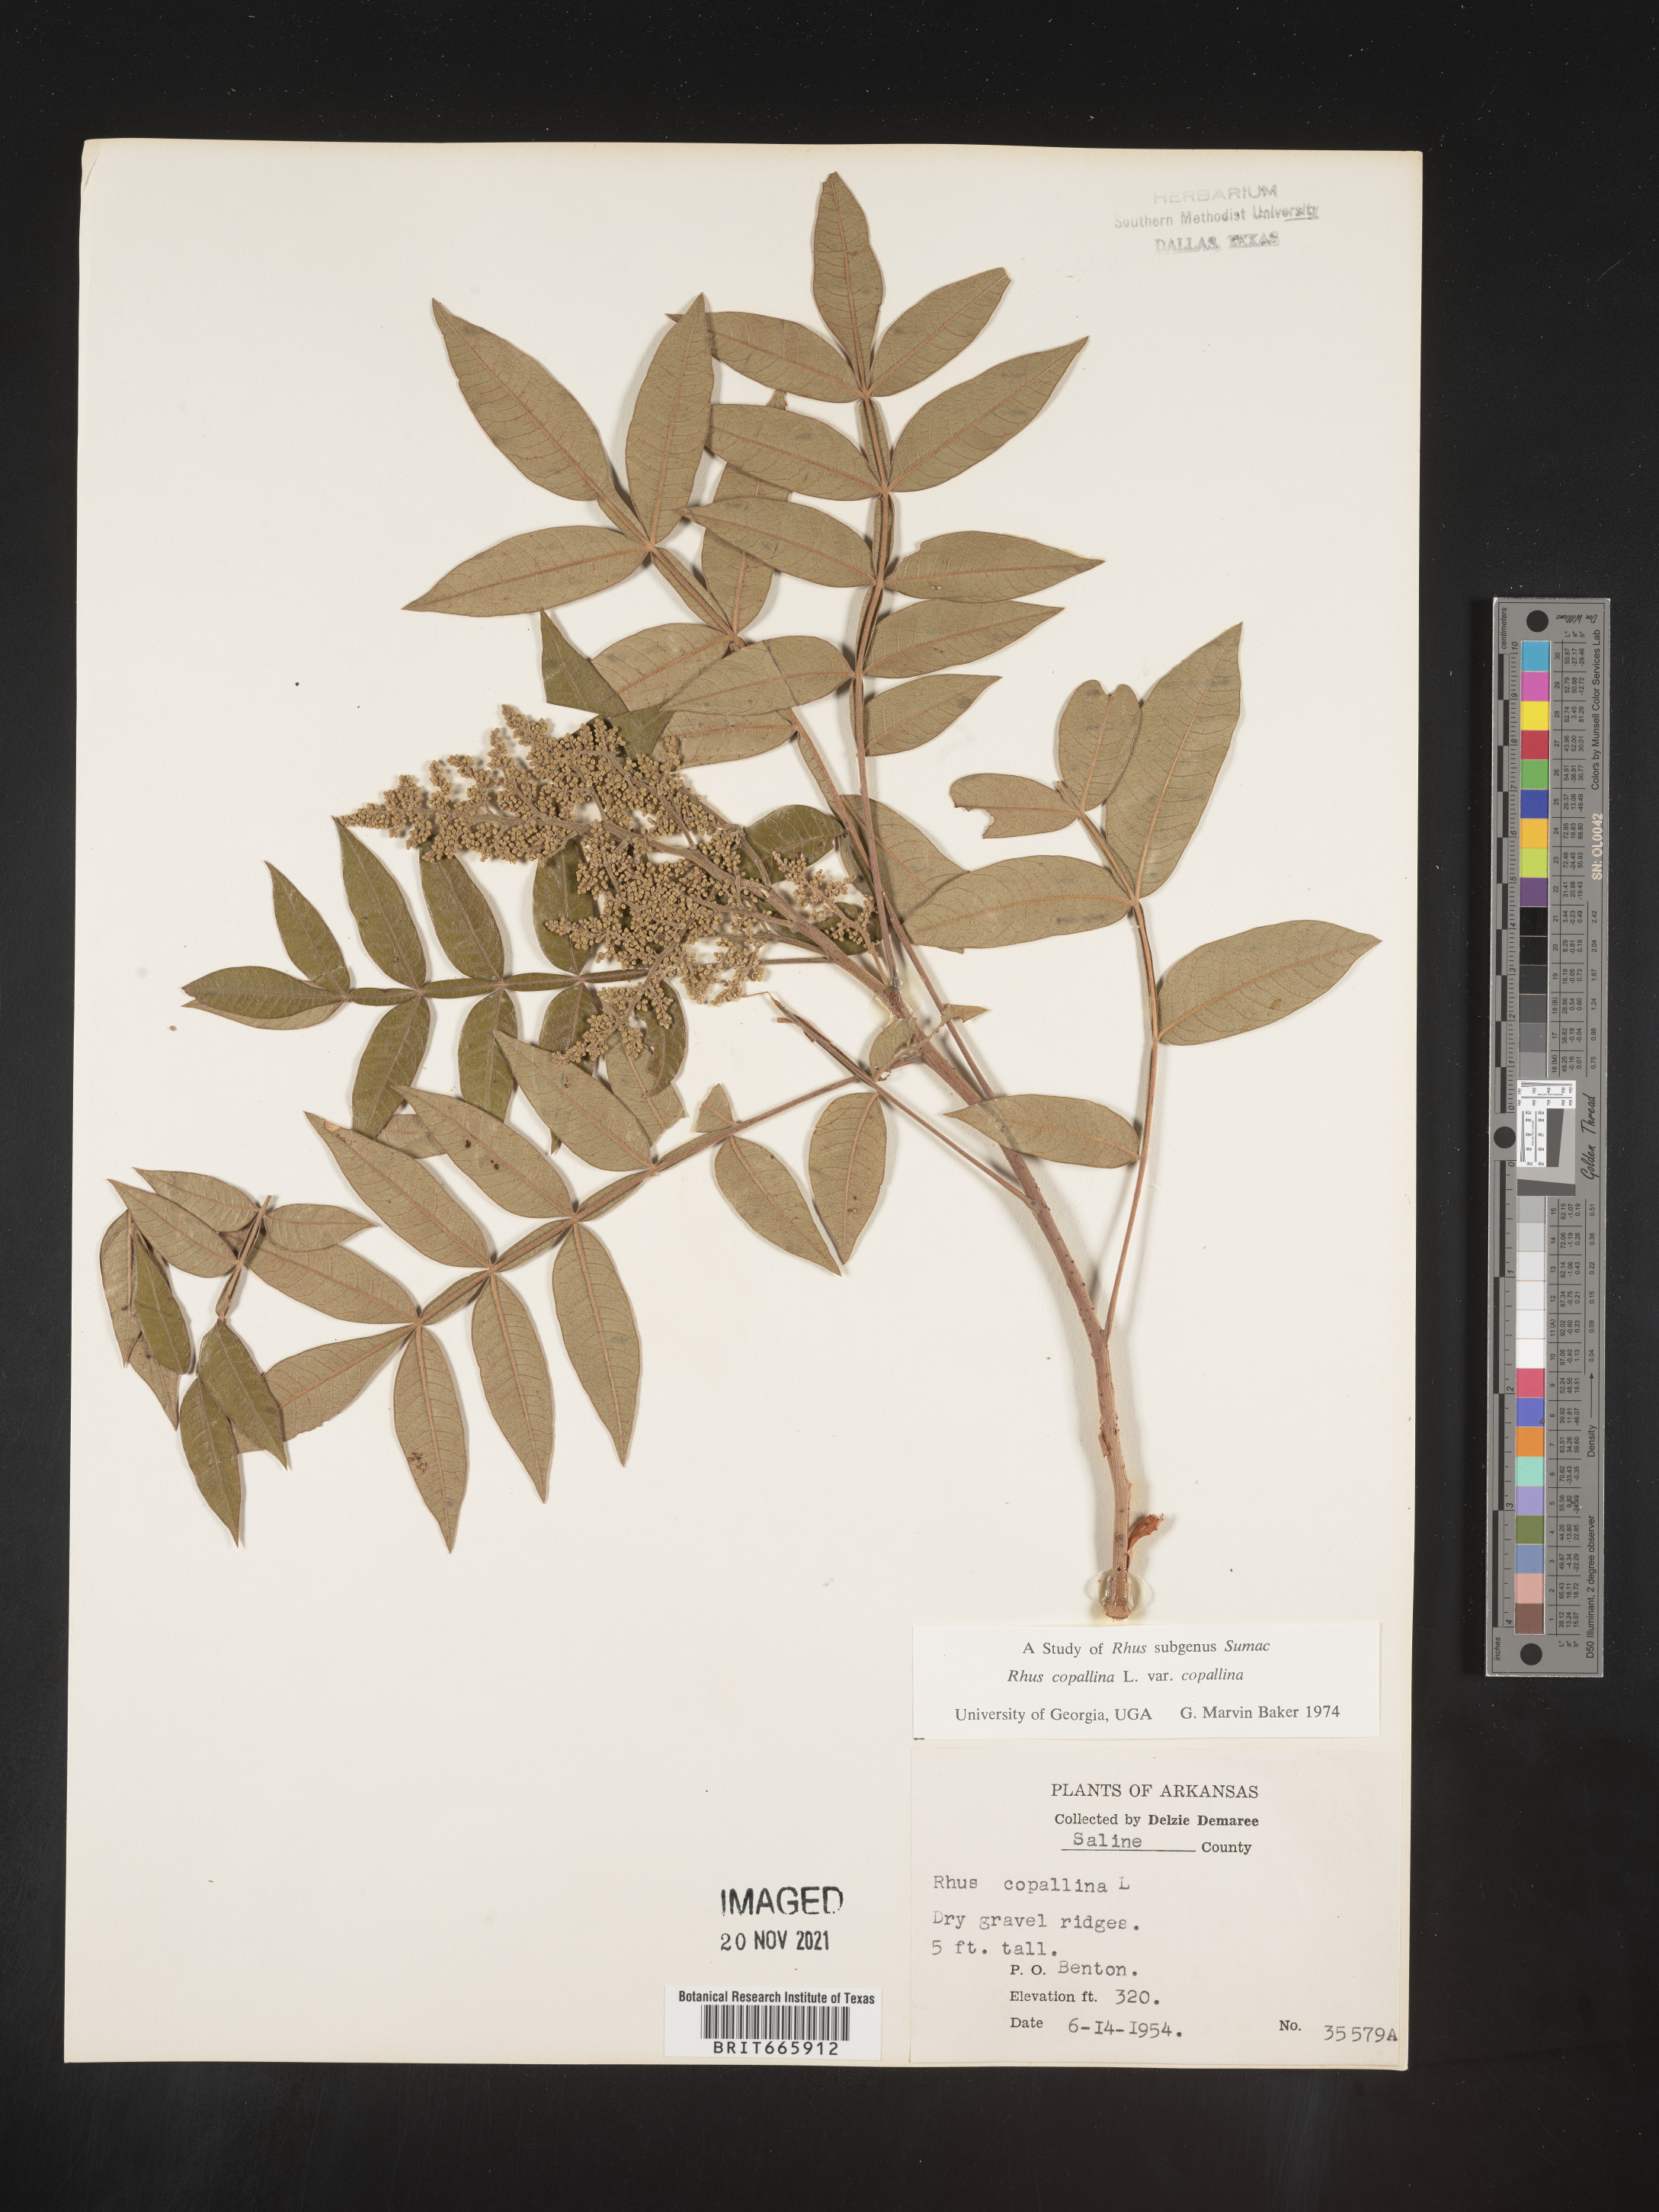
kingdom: Plantae
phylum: Tracheophyta
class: Magnoliopsida
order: Sapindales
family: Anacardiaceae
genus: Rhus
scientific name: Rhus copallina
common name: Shining sumac
